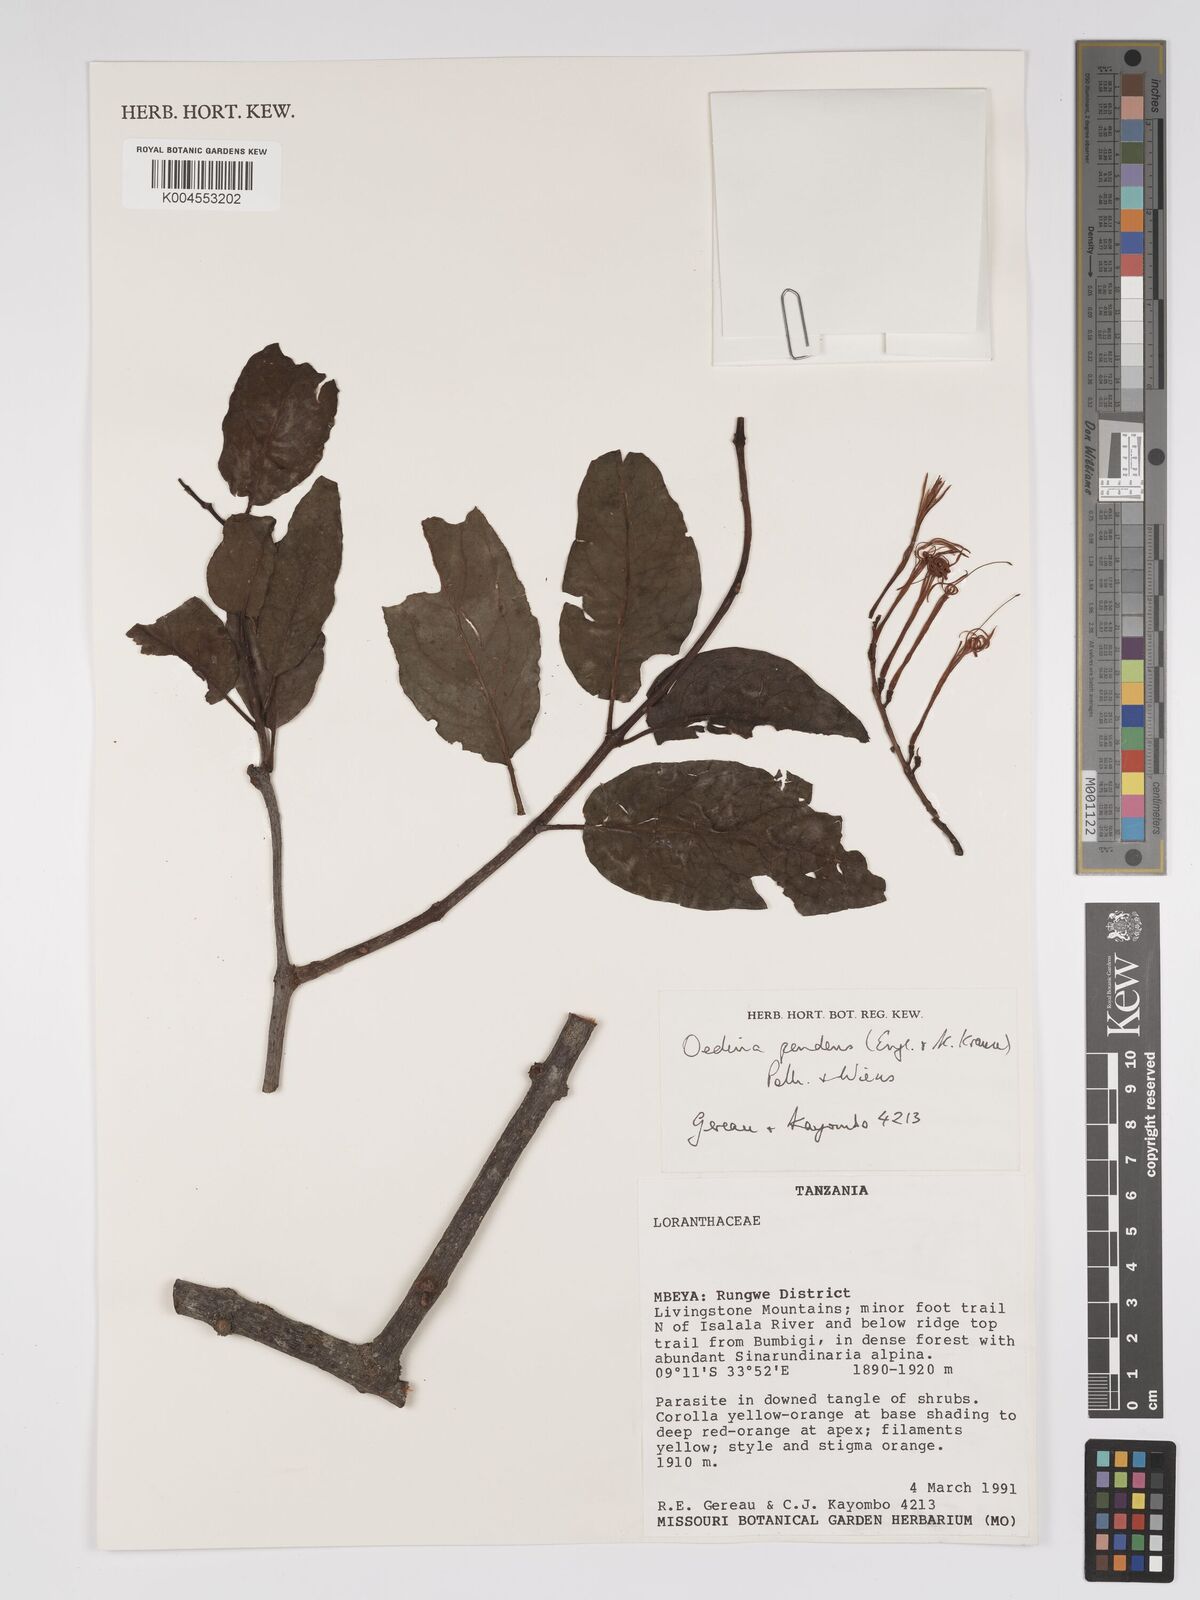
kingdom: Plantae
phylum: Tracheophyta
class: Magnoliopsida
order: Santalales
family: Loranthaceae
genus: Oedina
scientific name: Oedina pendens
